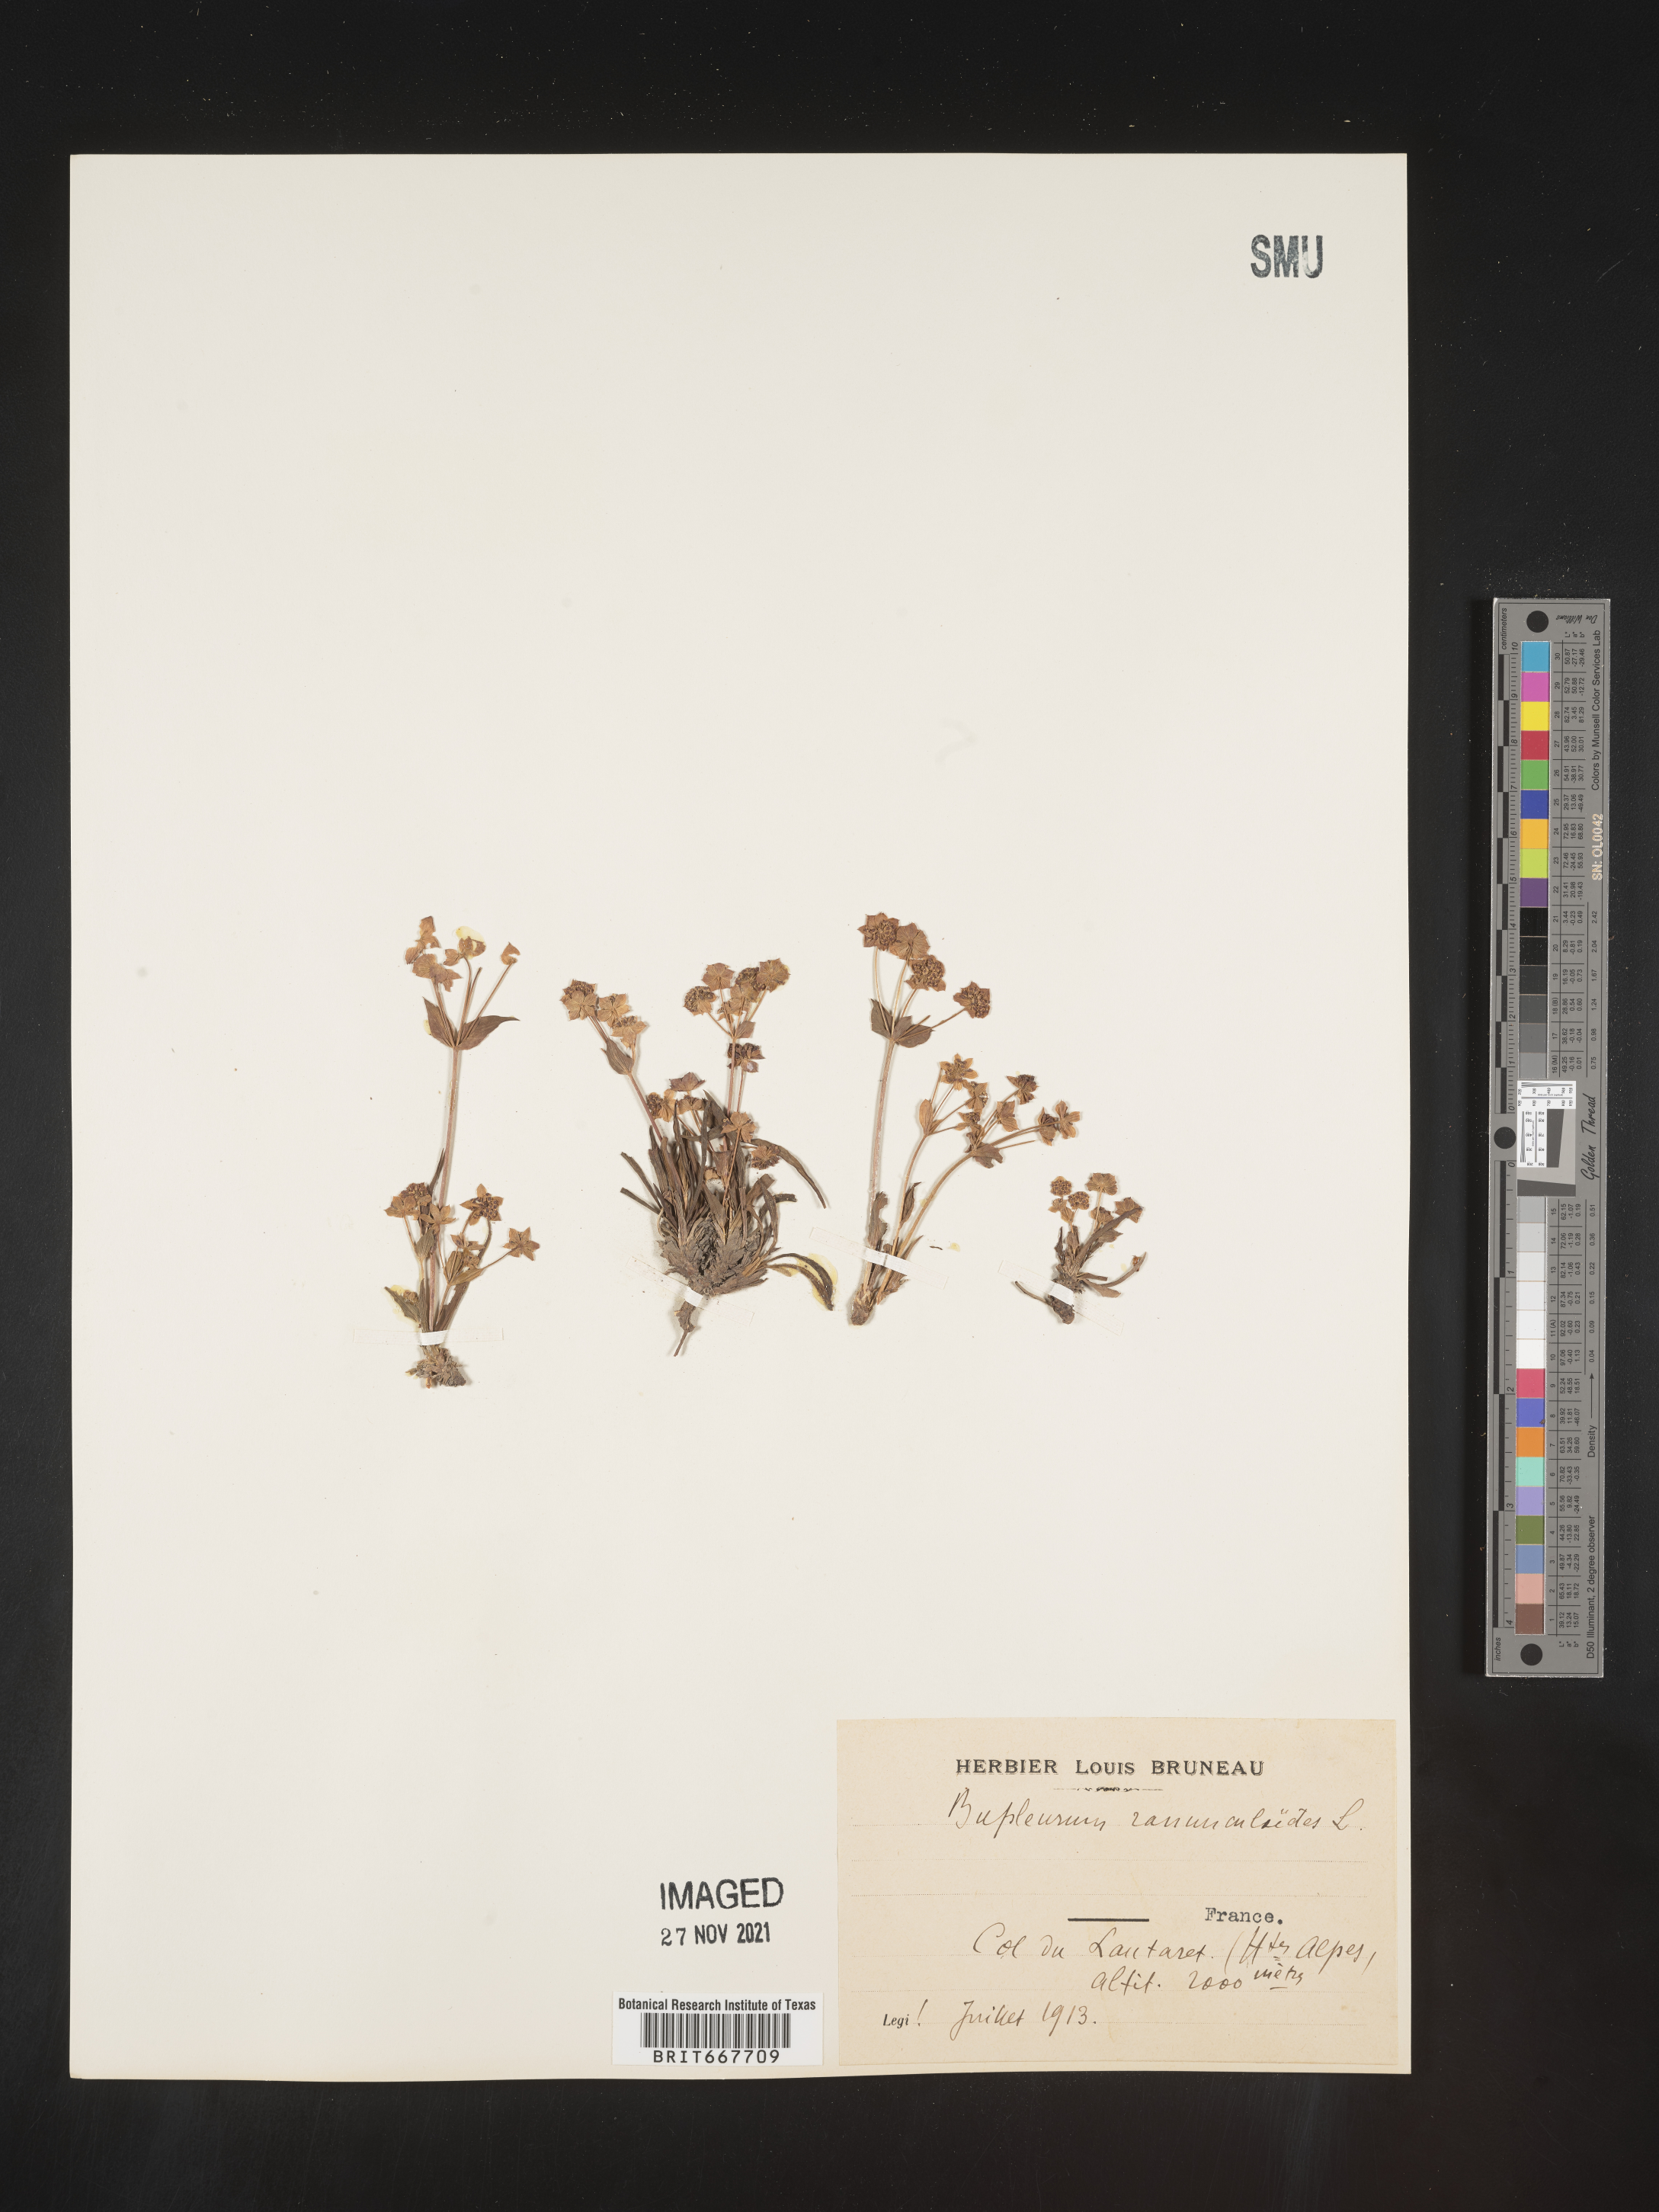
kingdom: Plantae
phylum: Tracheophyta
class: Magnoliopsida
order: Apiales
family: Apiaceae
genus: Bupleurum
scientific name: Bupleurum
